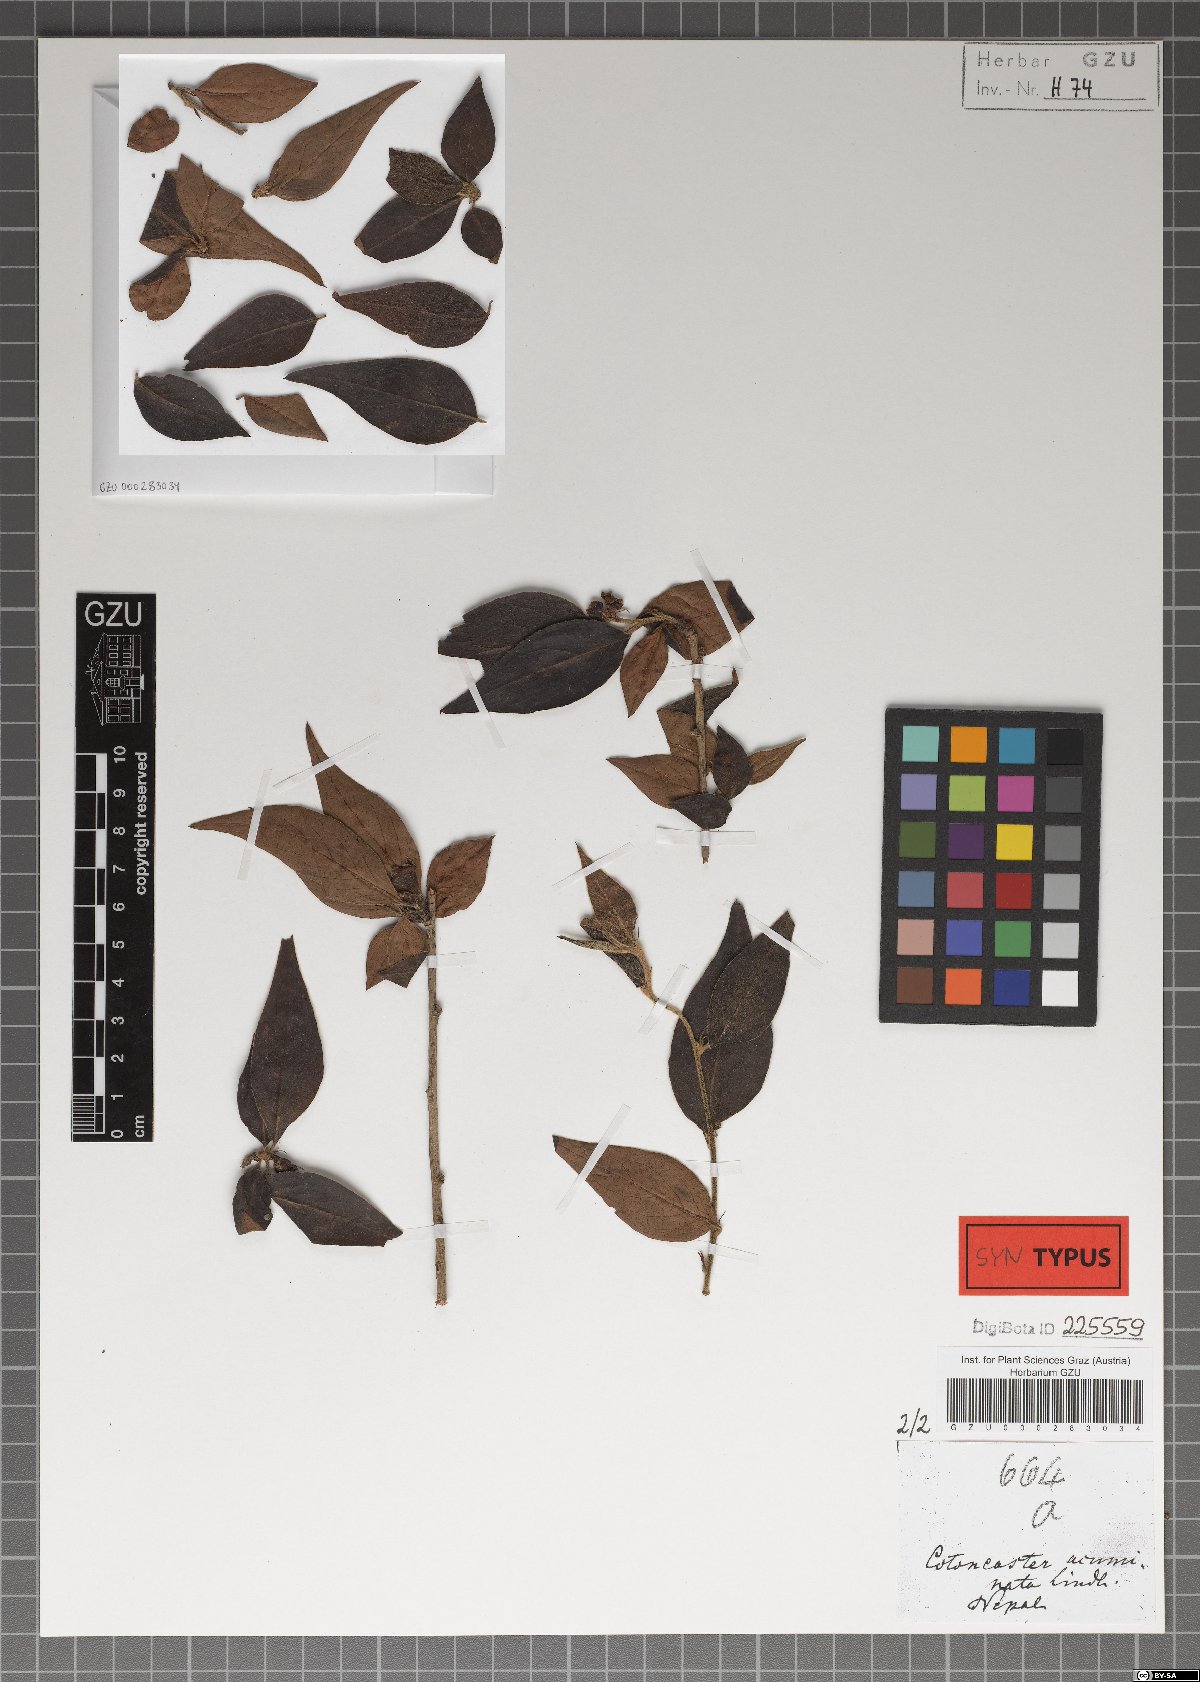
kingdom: Plantae
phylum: Tracheophyta
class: Magnoliopsida
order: Rosales
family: Rosaceae
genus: Cotoneaster
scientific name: Cotoneaster acuminatus
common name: Acuminate cotoneaster
